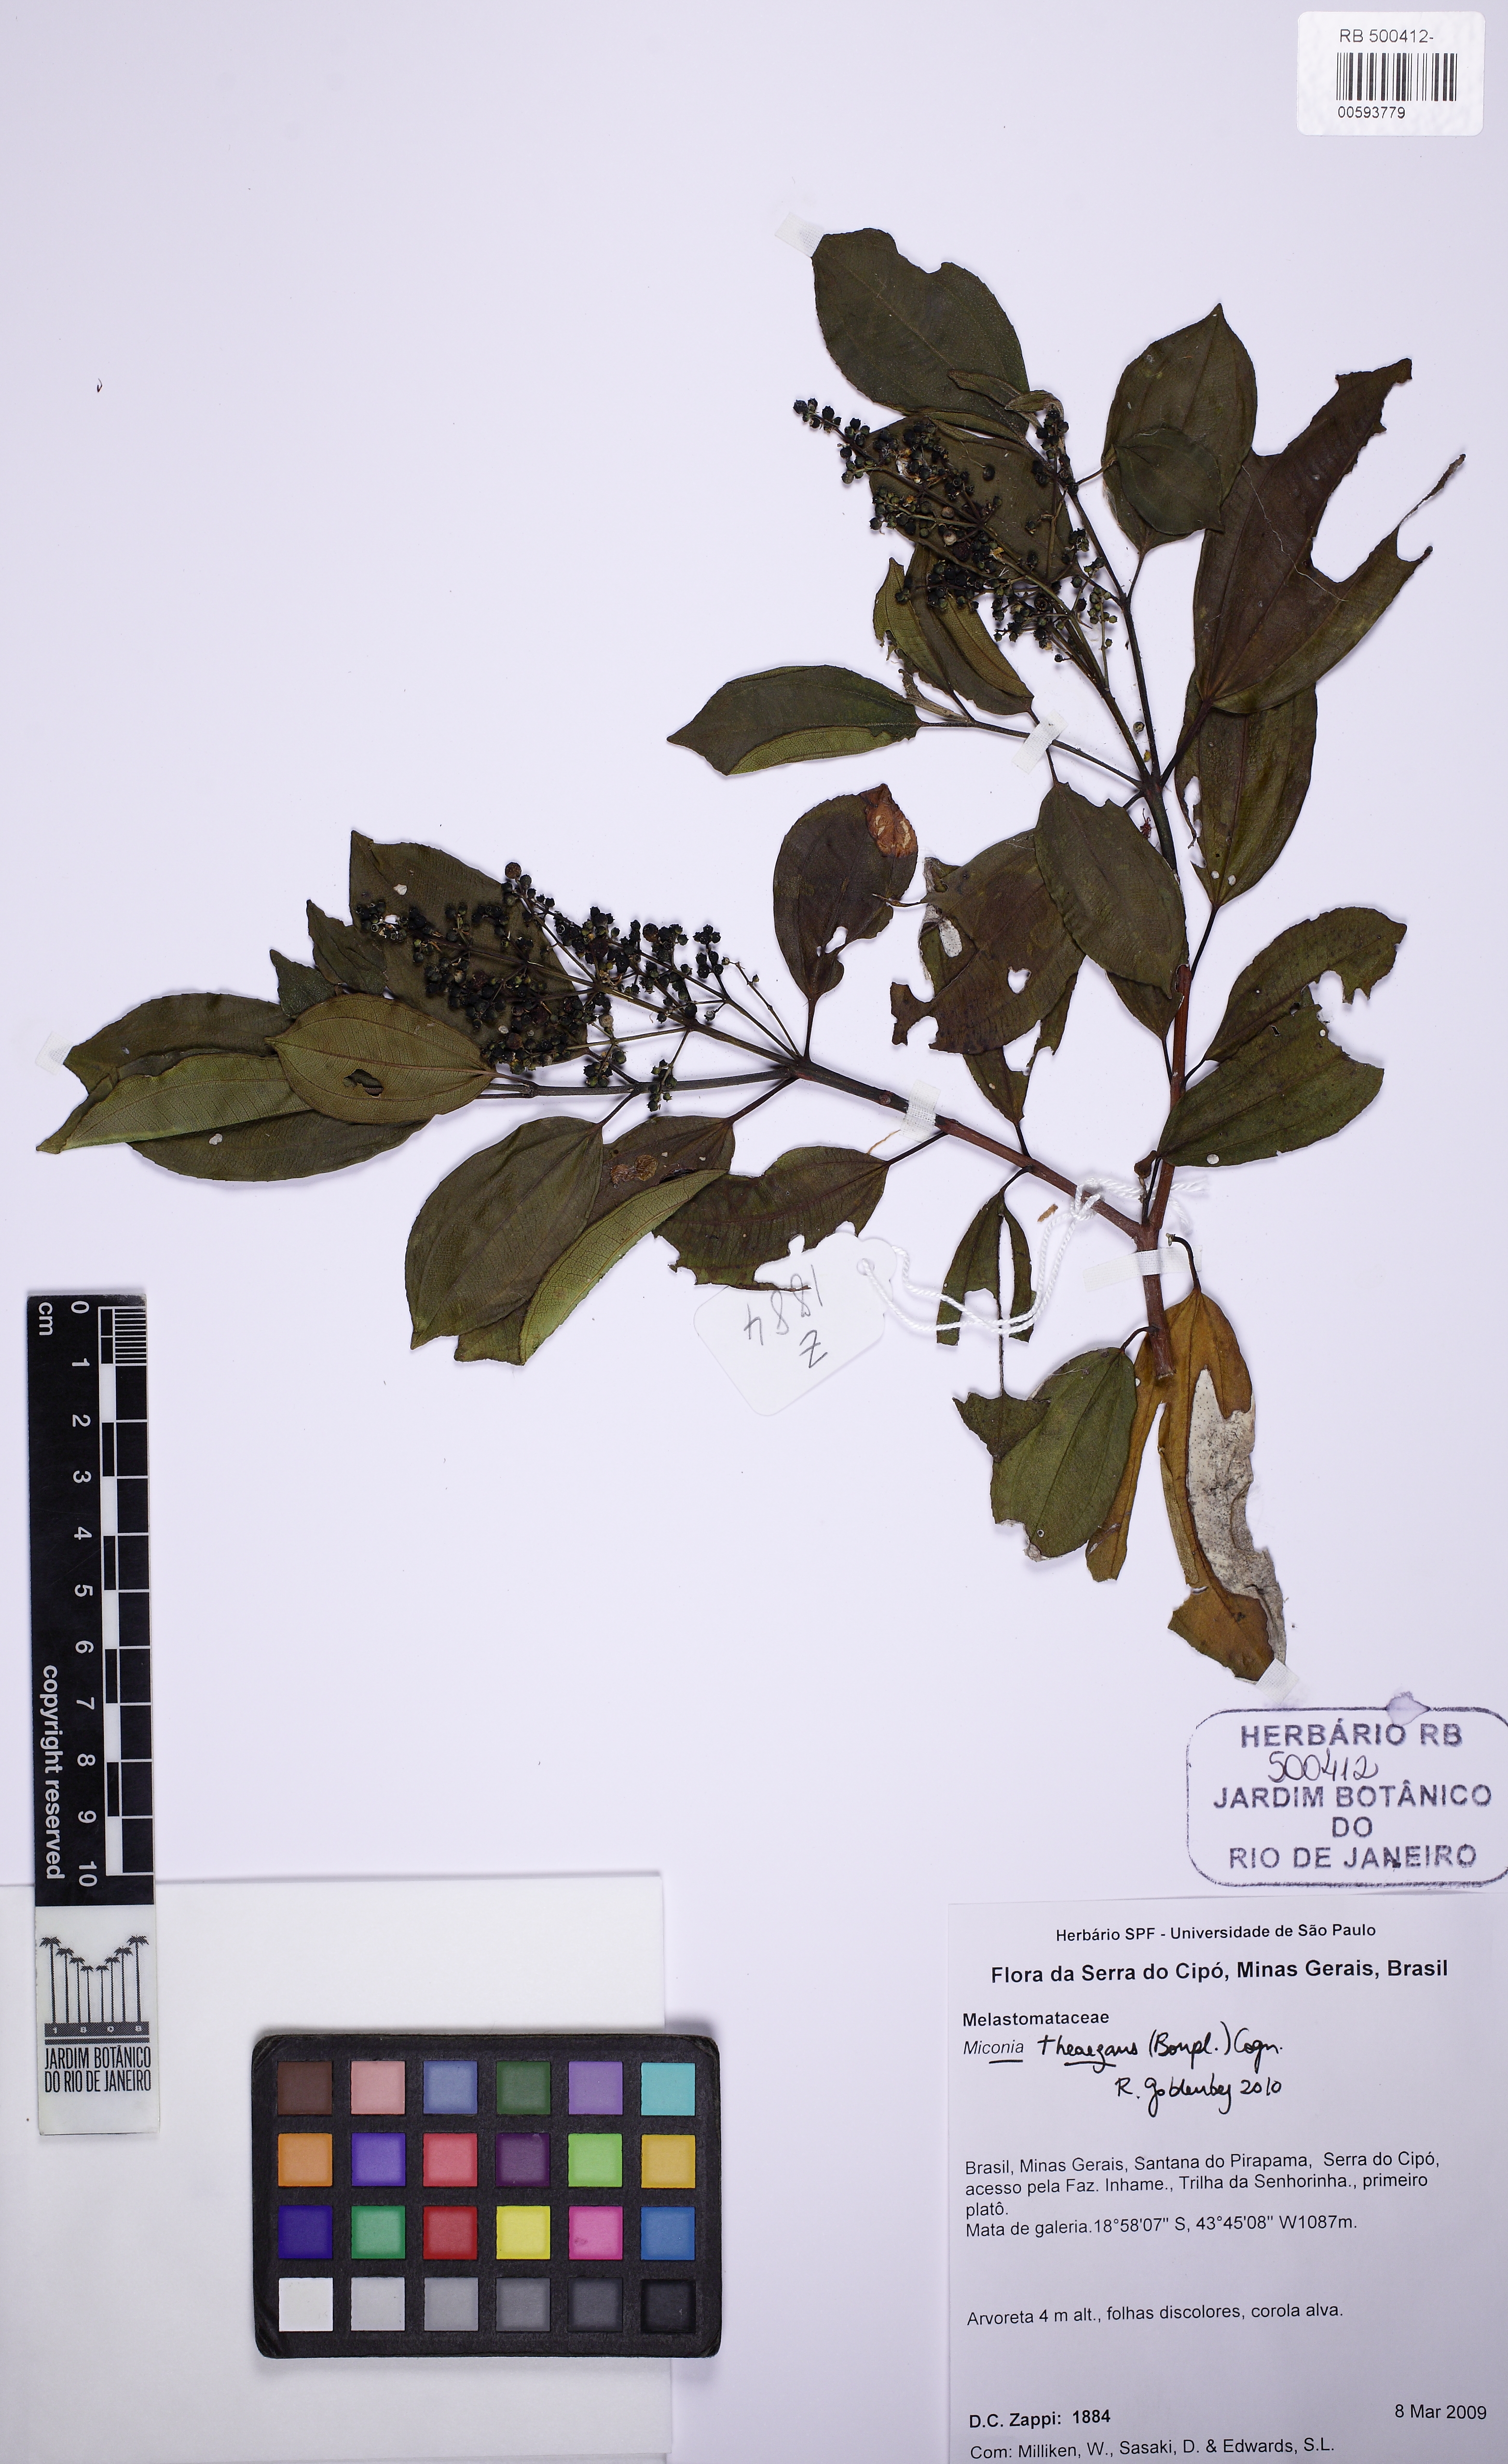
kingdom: Plantae
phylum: Tracheophyta
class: Magnoliopsida
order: Myrtales
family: Melastomataceae
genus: Miconia
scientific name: Miconia theizans
